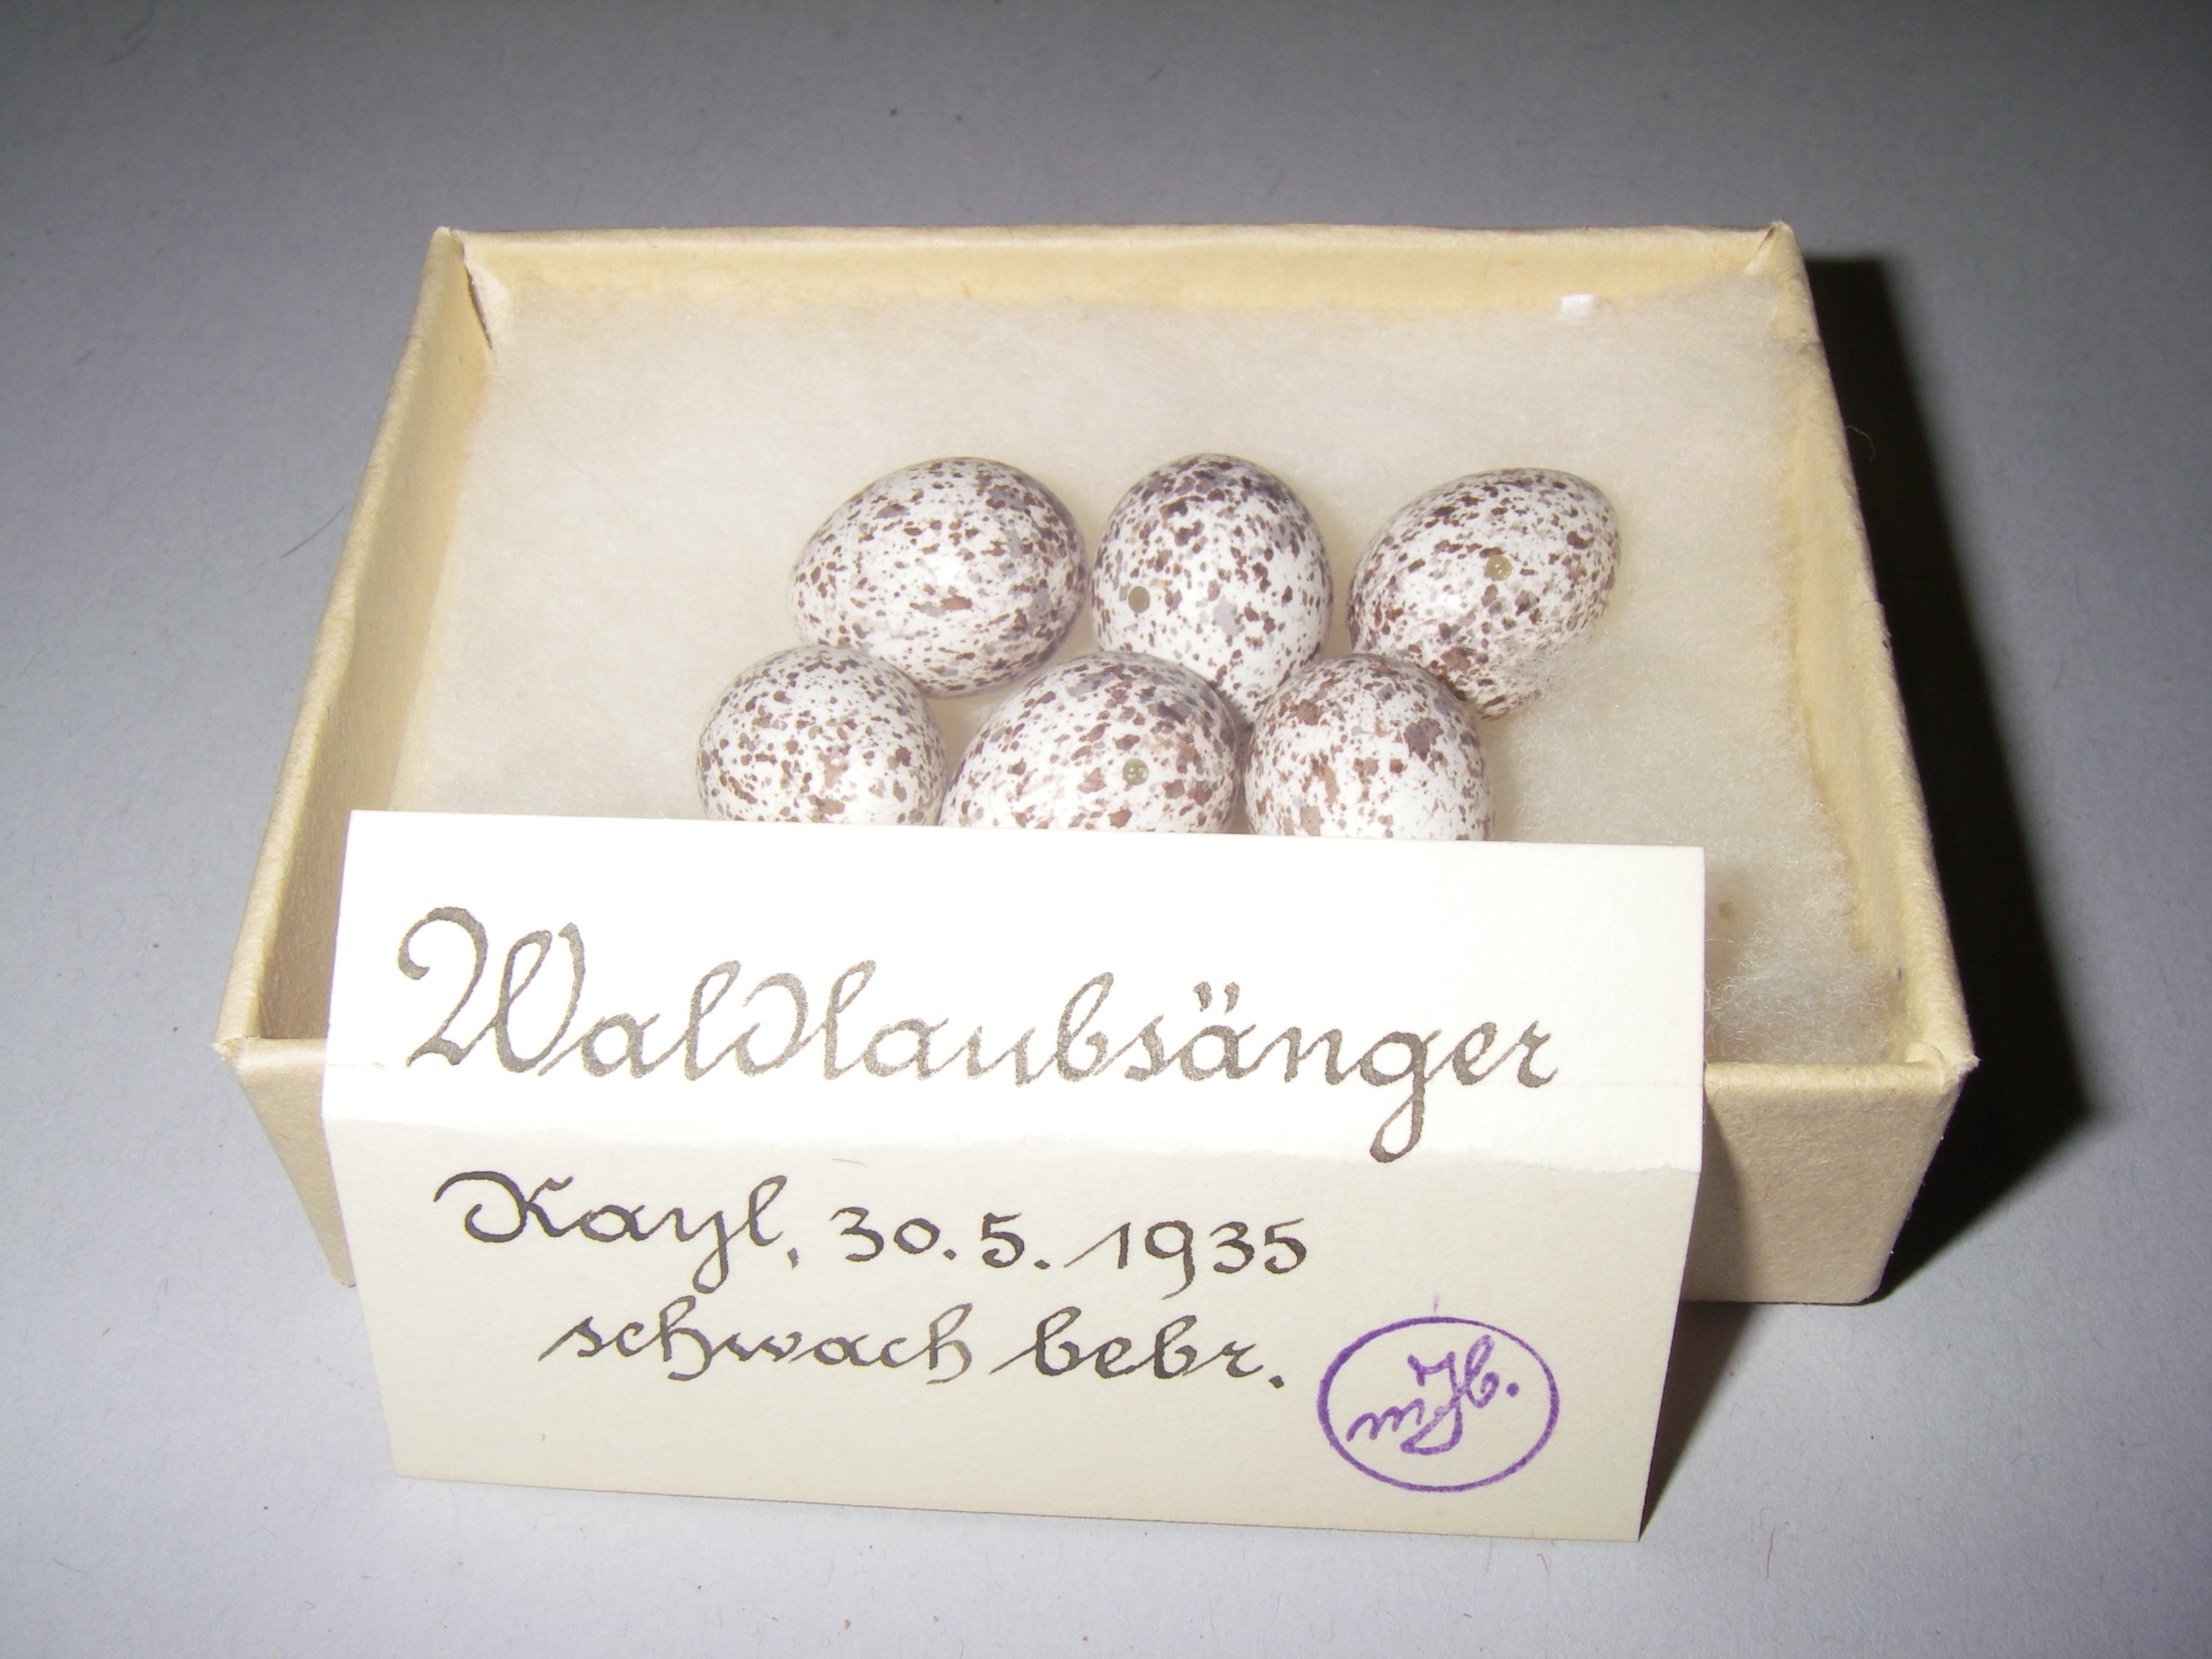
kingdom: Animalia
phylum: Chordata
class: Aves
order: Passeriformes
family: Phylloscopidae
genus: Phylloscopus
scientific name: Phylloscopus sibillatrix
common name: Wood warbler
